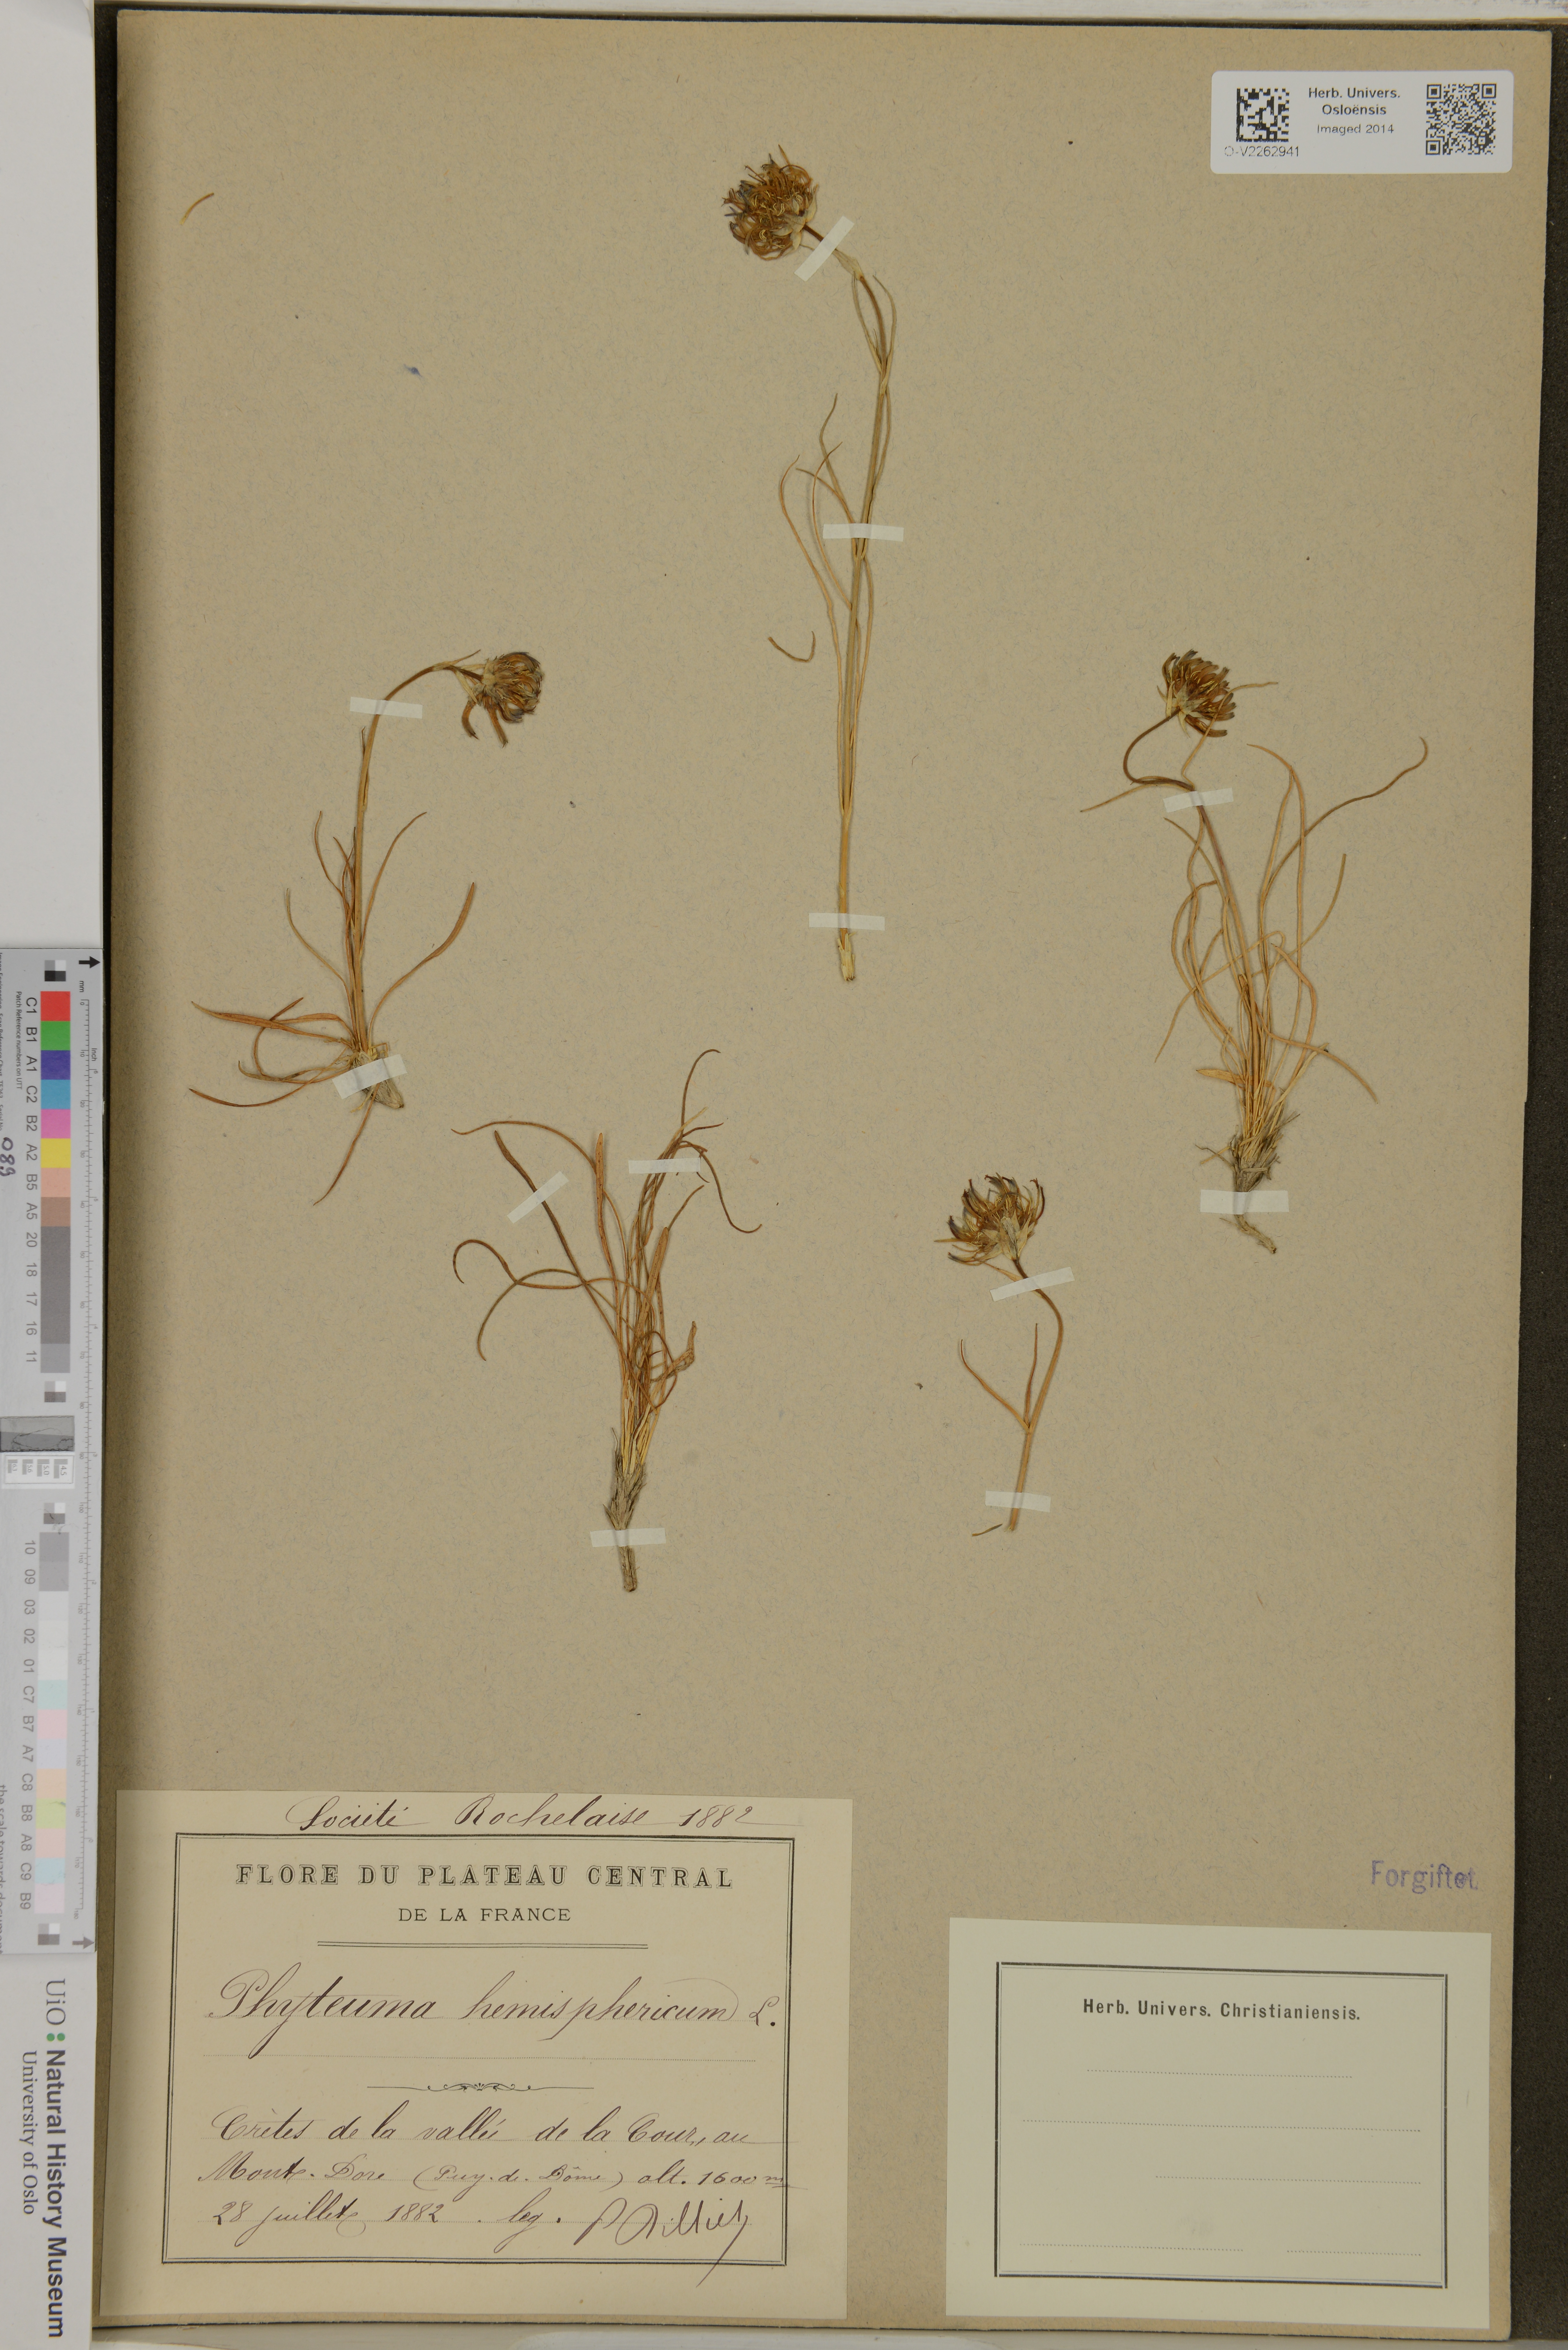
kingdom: Plantae
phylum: Tracheophyta
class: Magnoliopsida
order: Asterales
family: Campanulaceae
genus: Phyteuma
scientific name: Phyteuma hemisphaericum
